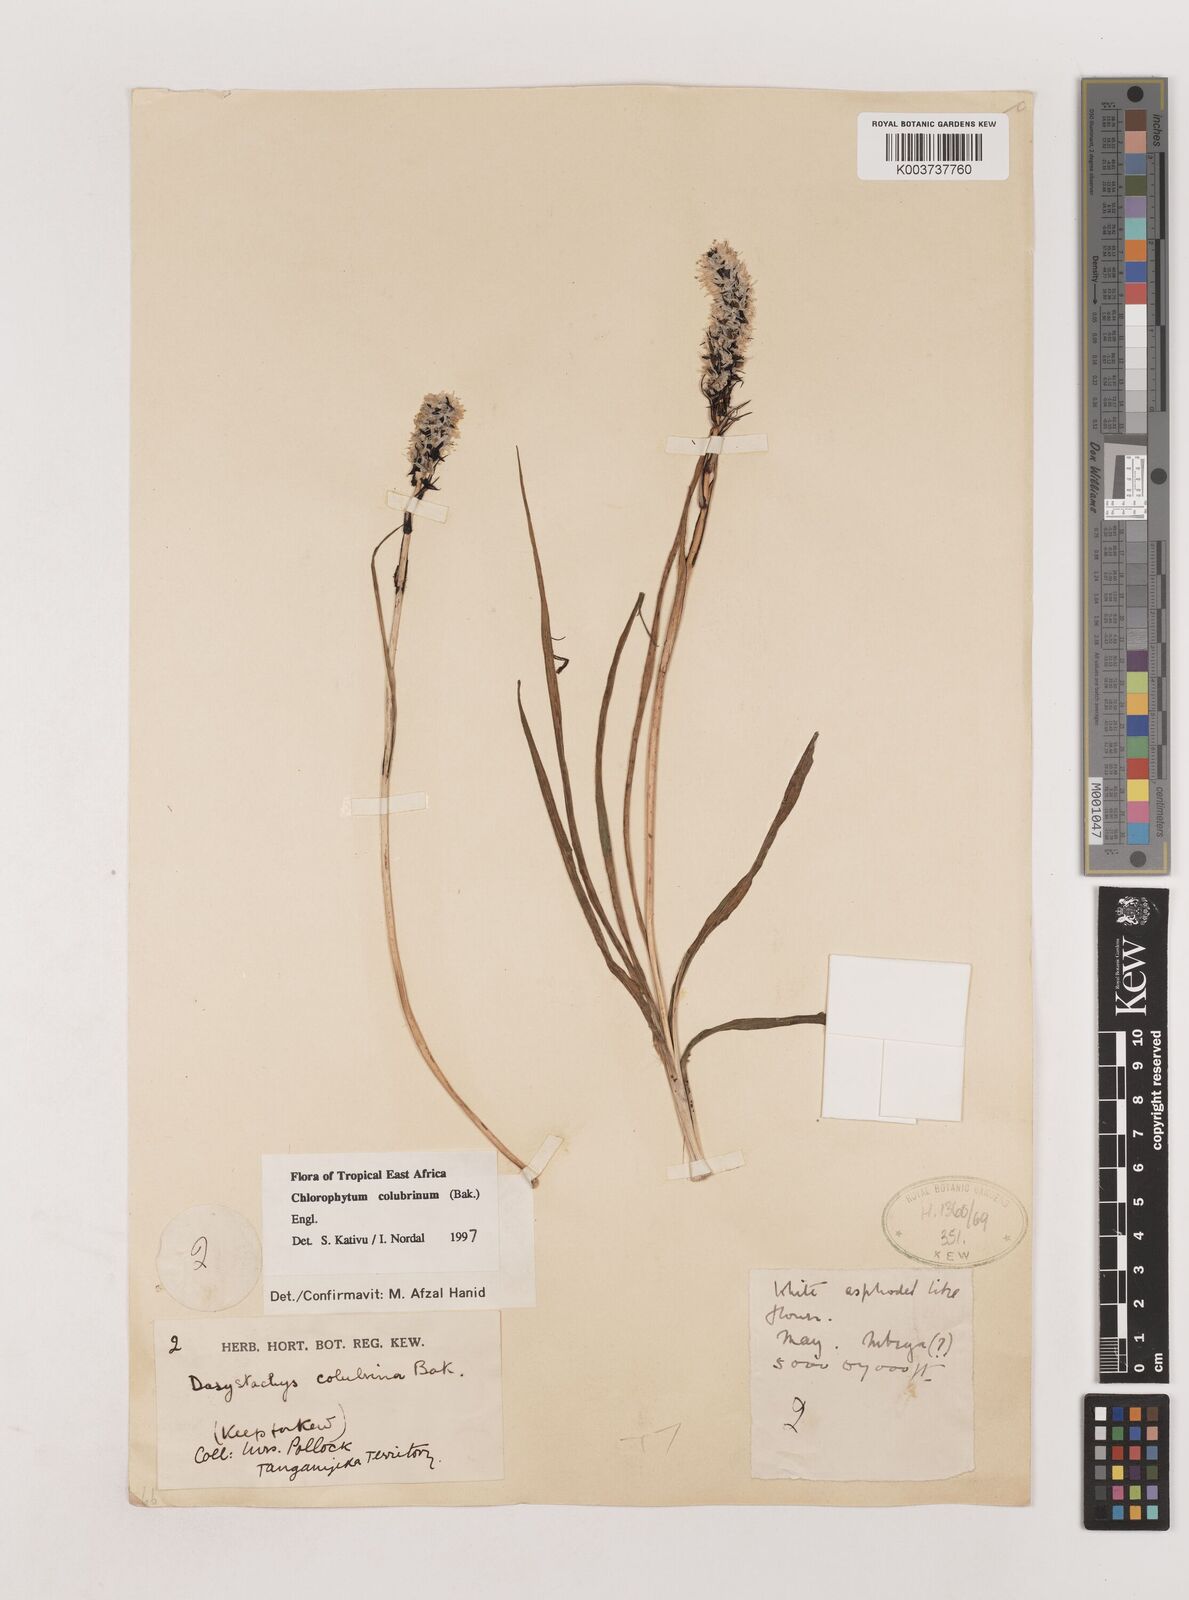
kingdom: Plantae
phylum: Tracheophyta
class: Liliopsida
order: Asparagales
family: Asparagaceae
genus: Chlorophytum
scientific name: Chlorophytum colubrinum
